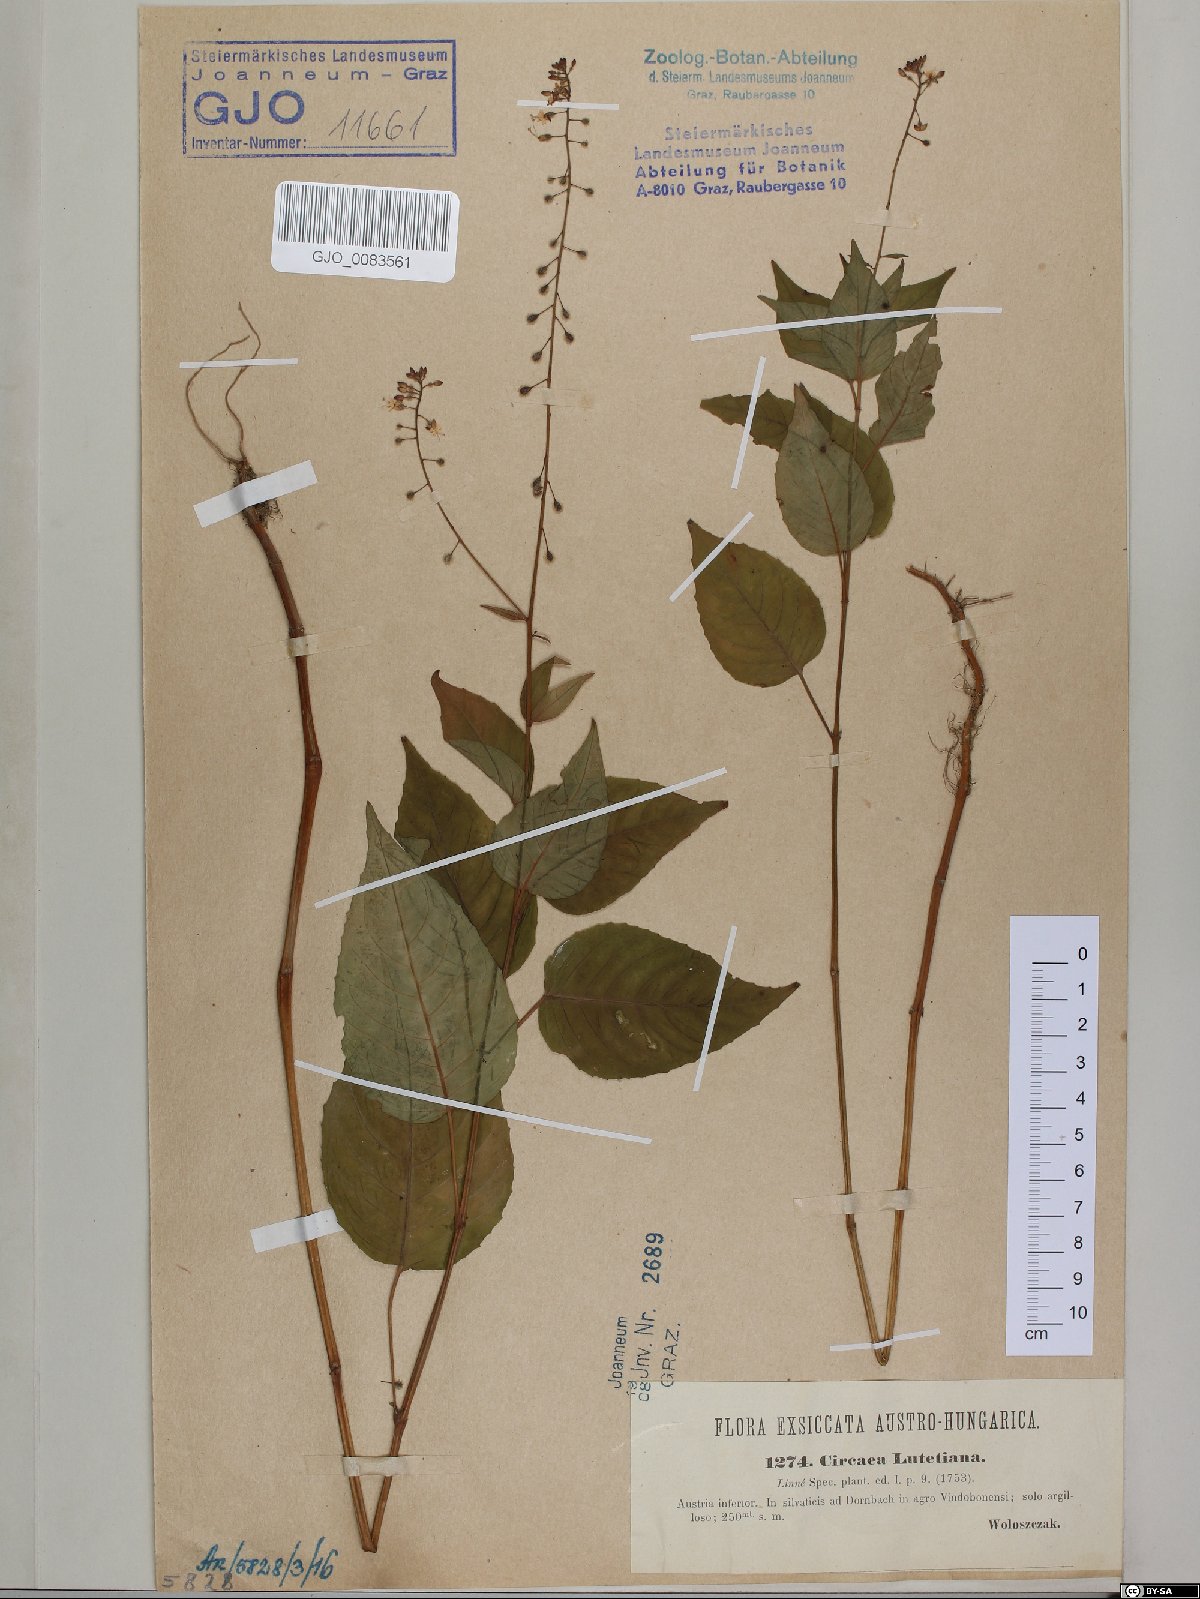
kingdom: Plantae
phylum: Tracheophyta
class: Magnoliopsida
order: Myrtales
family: Onagraceae
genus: Circaea
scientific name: Circaea lutetiana
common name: Enchanter's-nightshade
